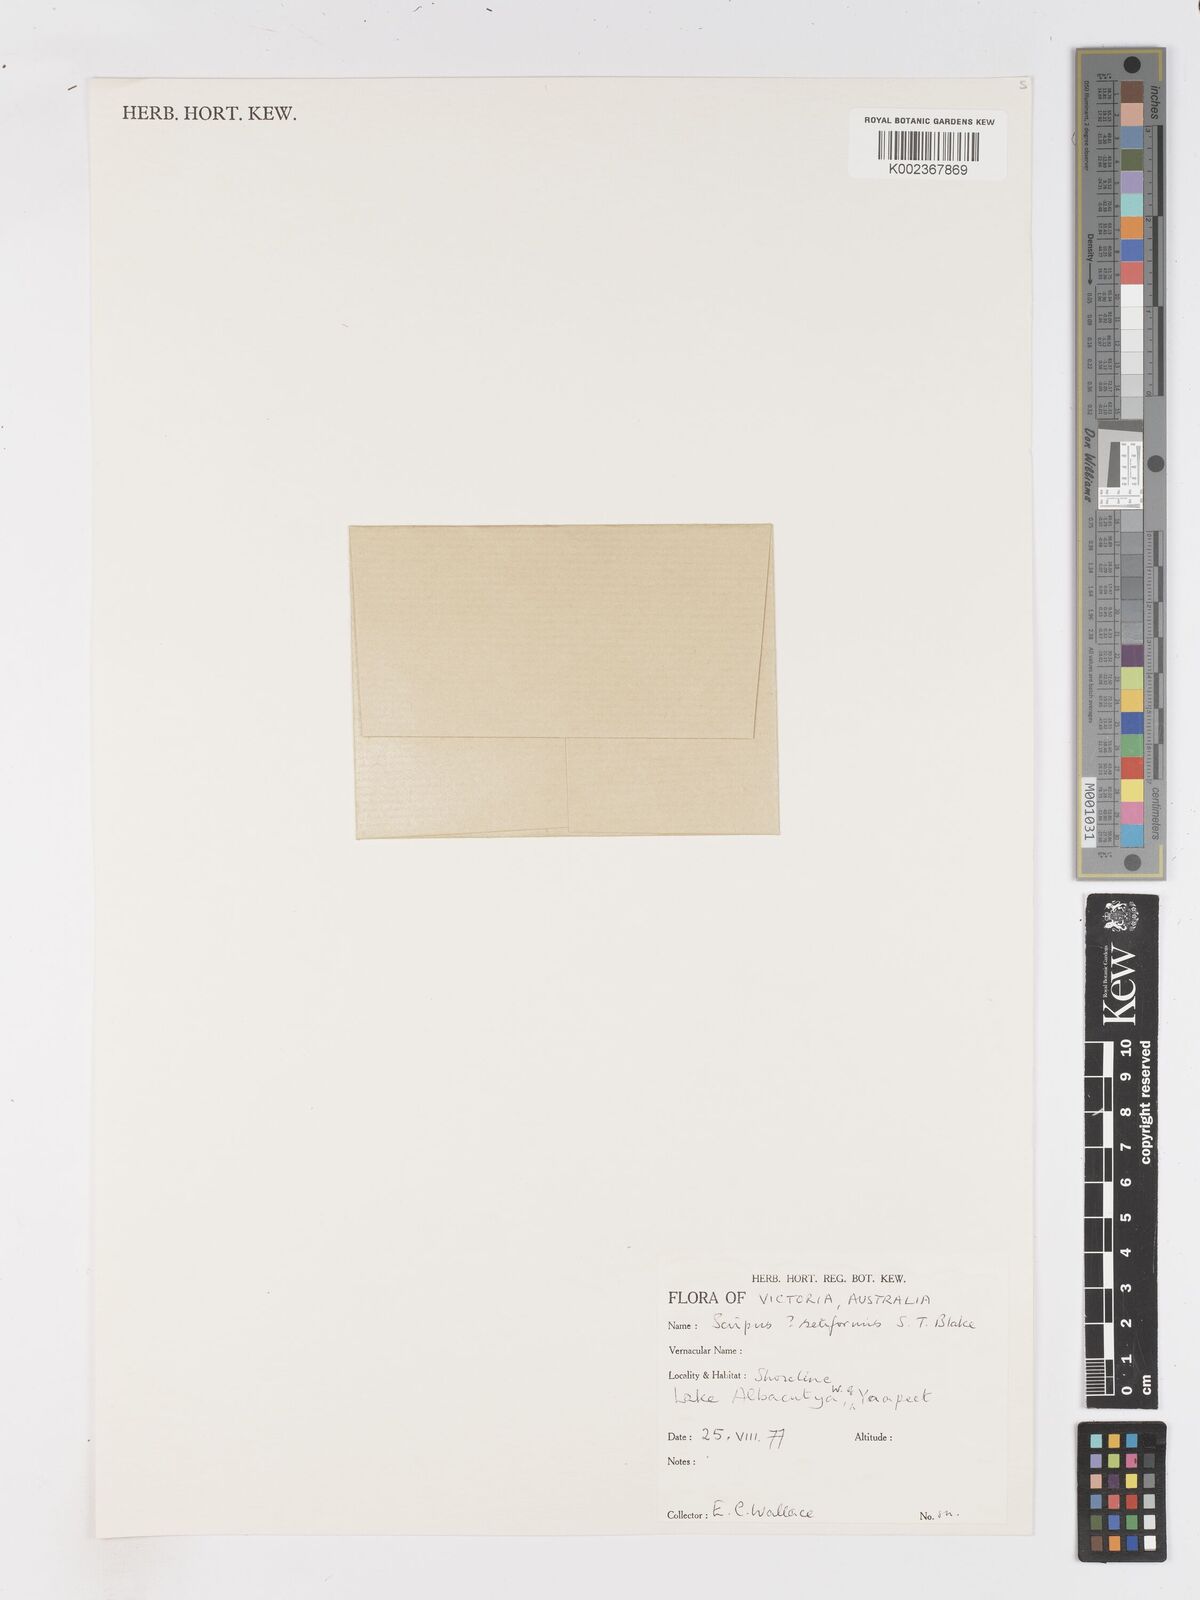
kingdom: Plantae
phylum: Tracheophyta
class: Liliopsida
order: Poales
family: Cyperaceae
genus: Isolepis
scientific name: Isolepis cernua
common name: Slender club-rush
